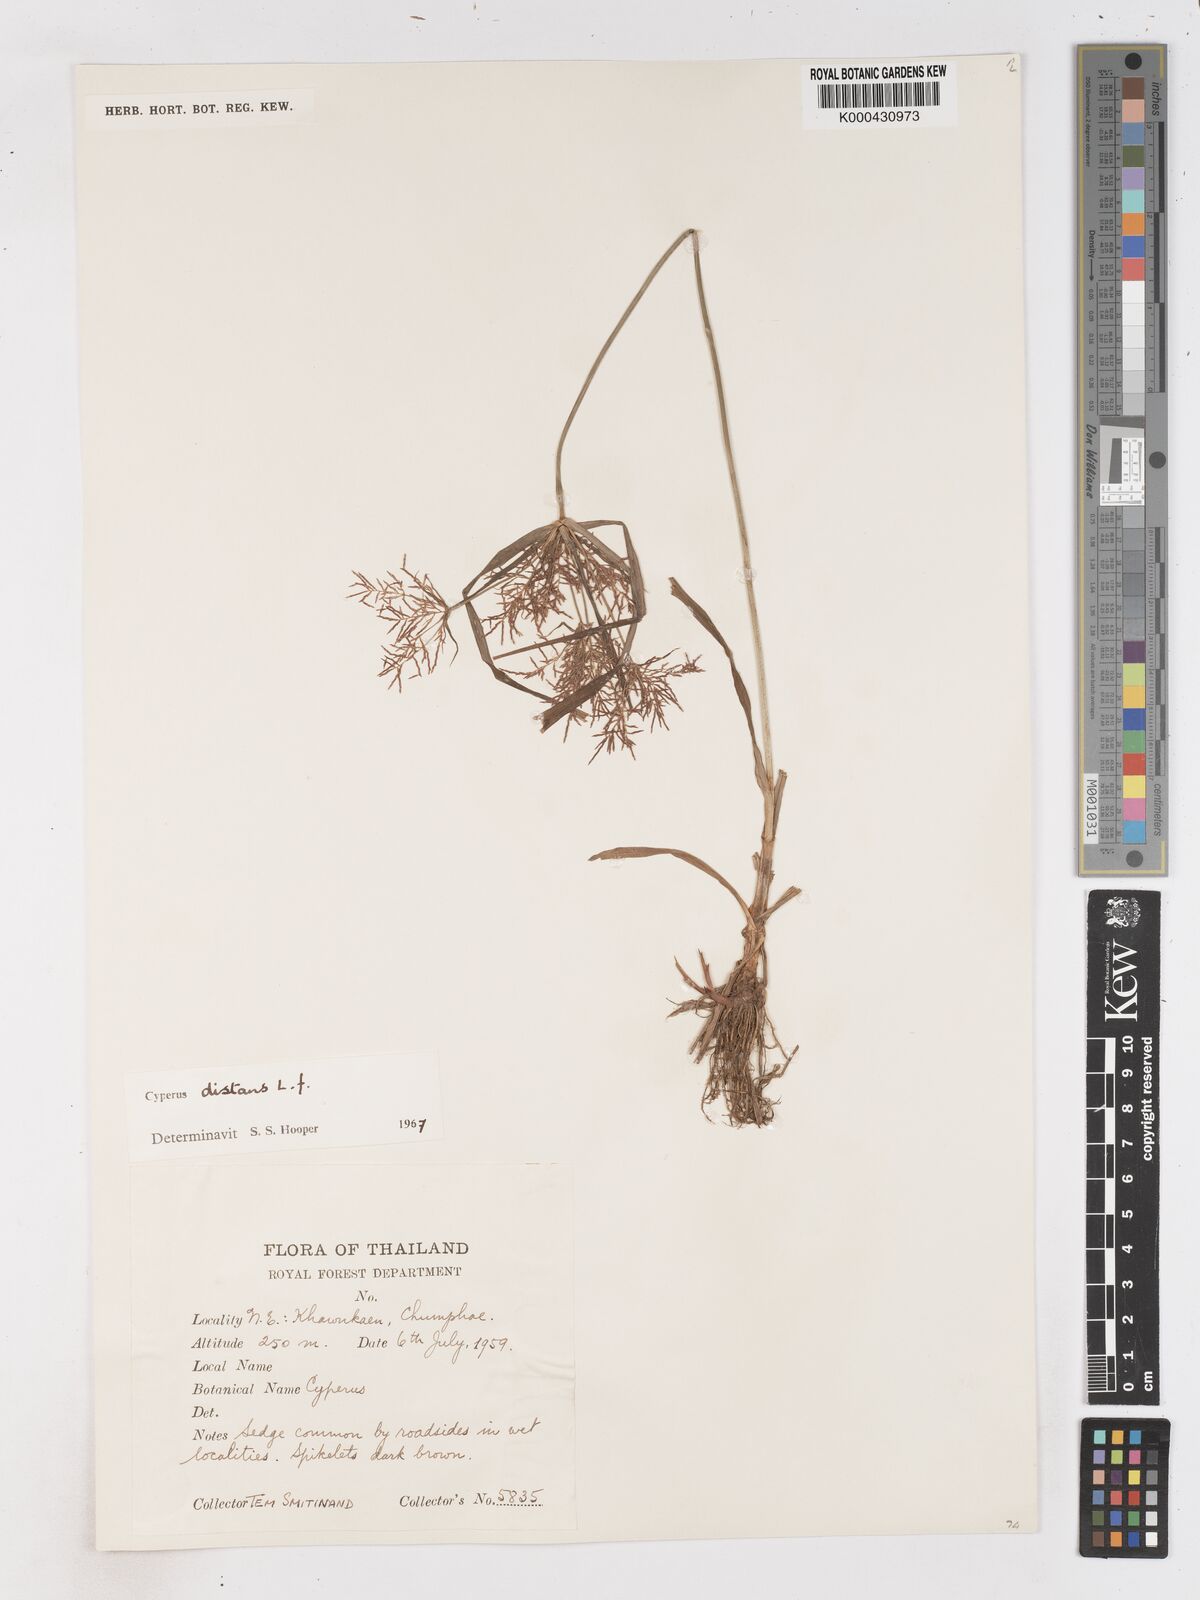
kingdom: Plantae
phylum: Tracheophyta
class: Liliopsida
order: Poales
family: Cyperaceae
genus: Cyperus
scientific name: Cyperus distans
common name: Slender cyperus
